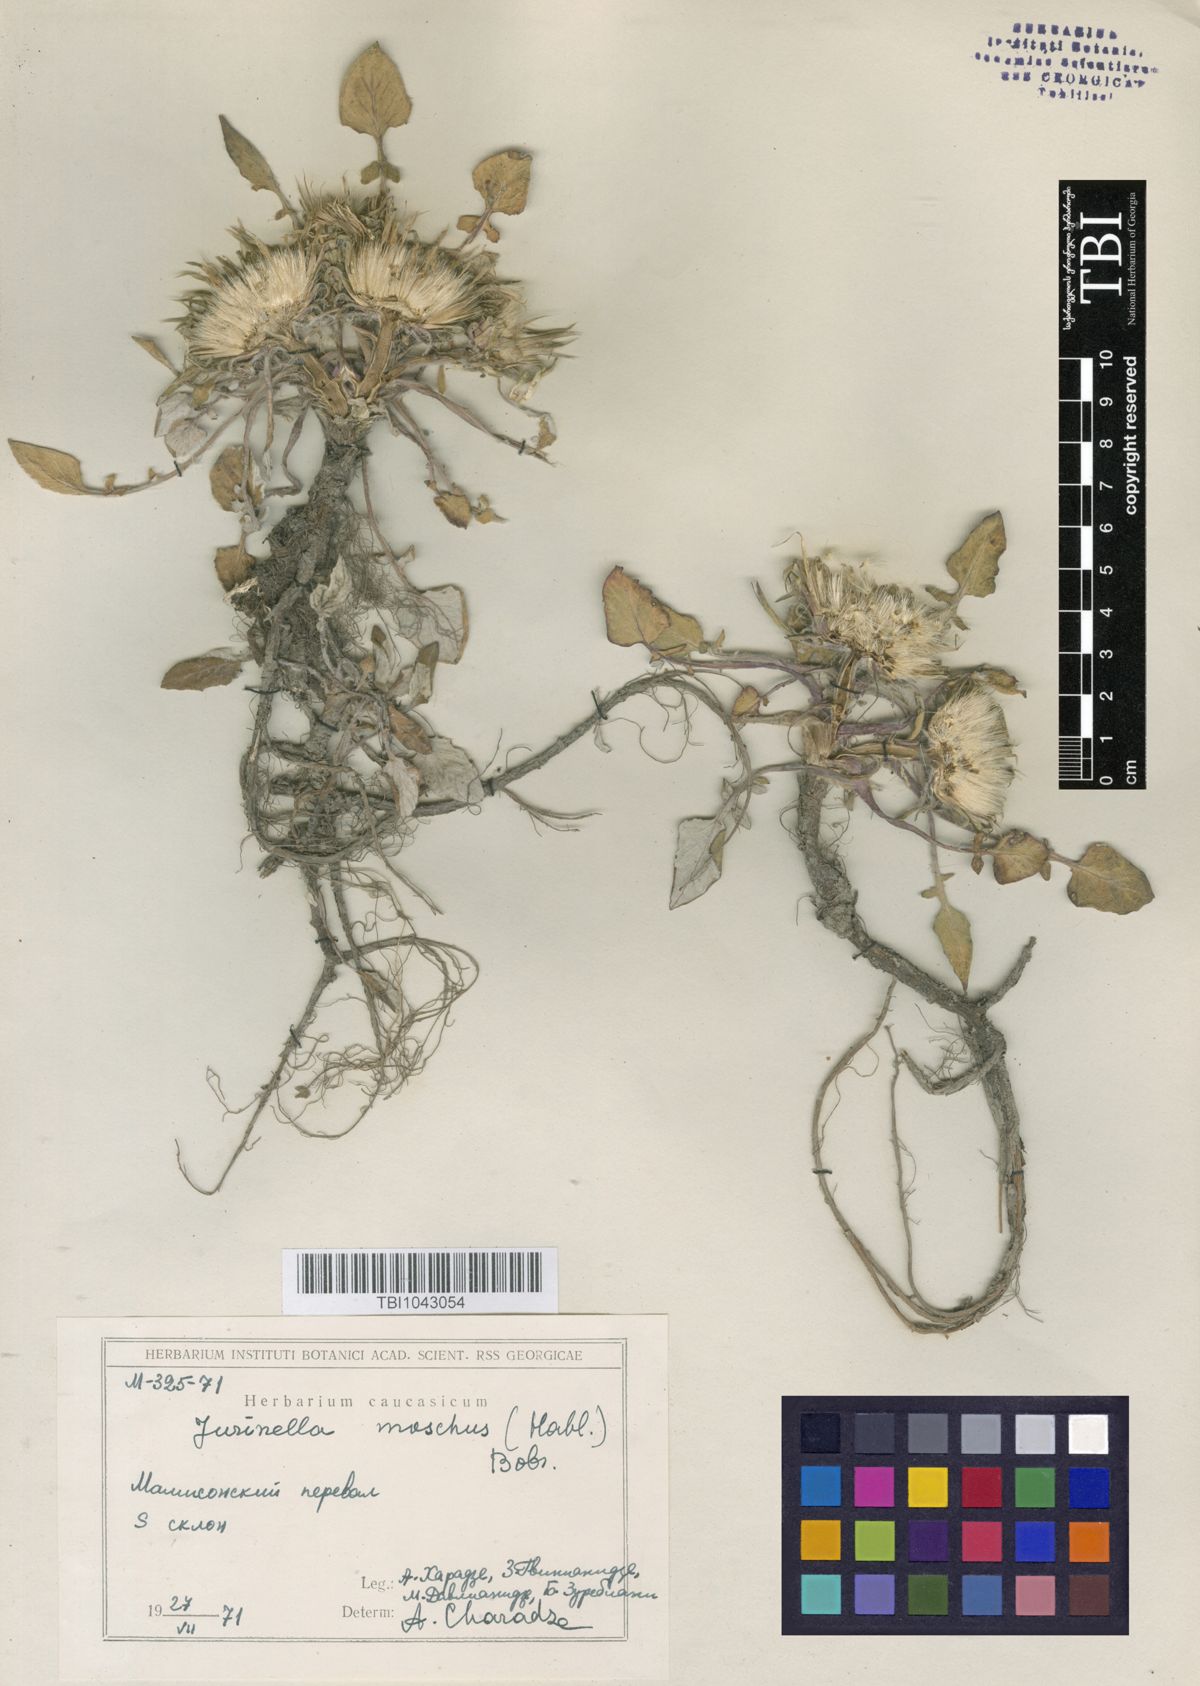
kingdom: Plantae
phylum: Tracheophyta
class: Magnoliopsida
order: Asterales
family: Asteraceae
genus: Jurinea
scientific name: Jurinea moschus
